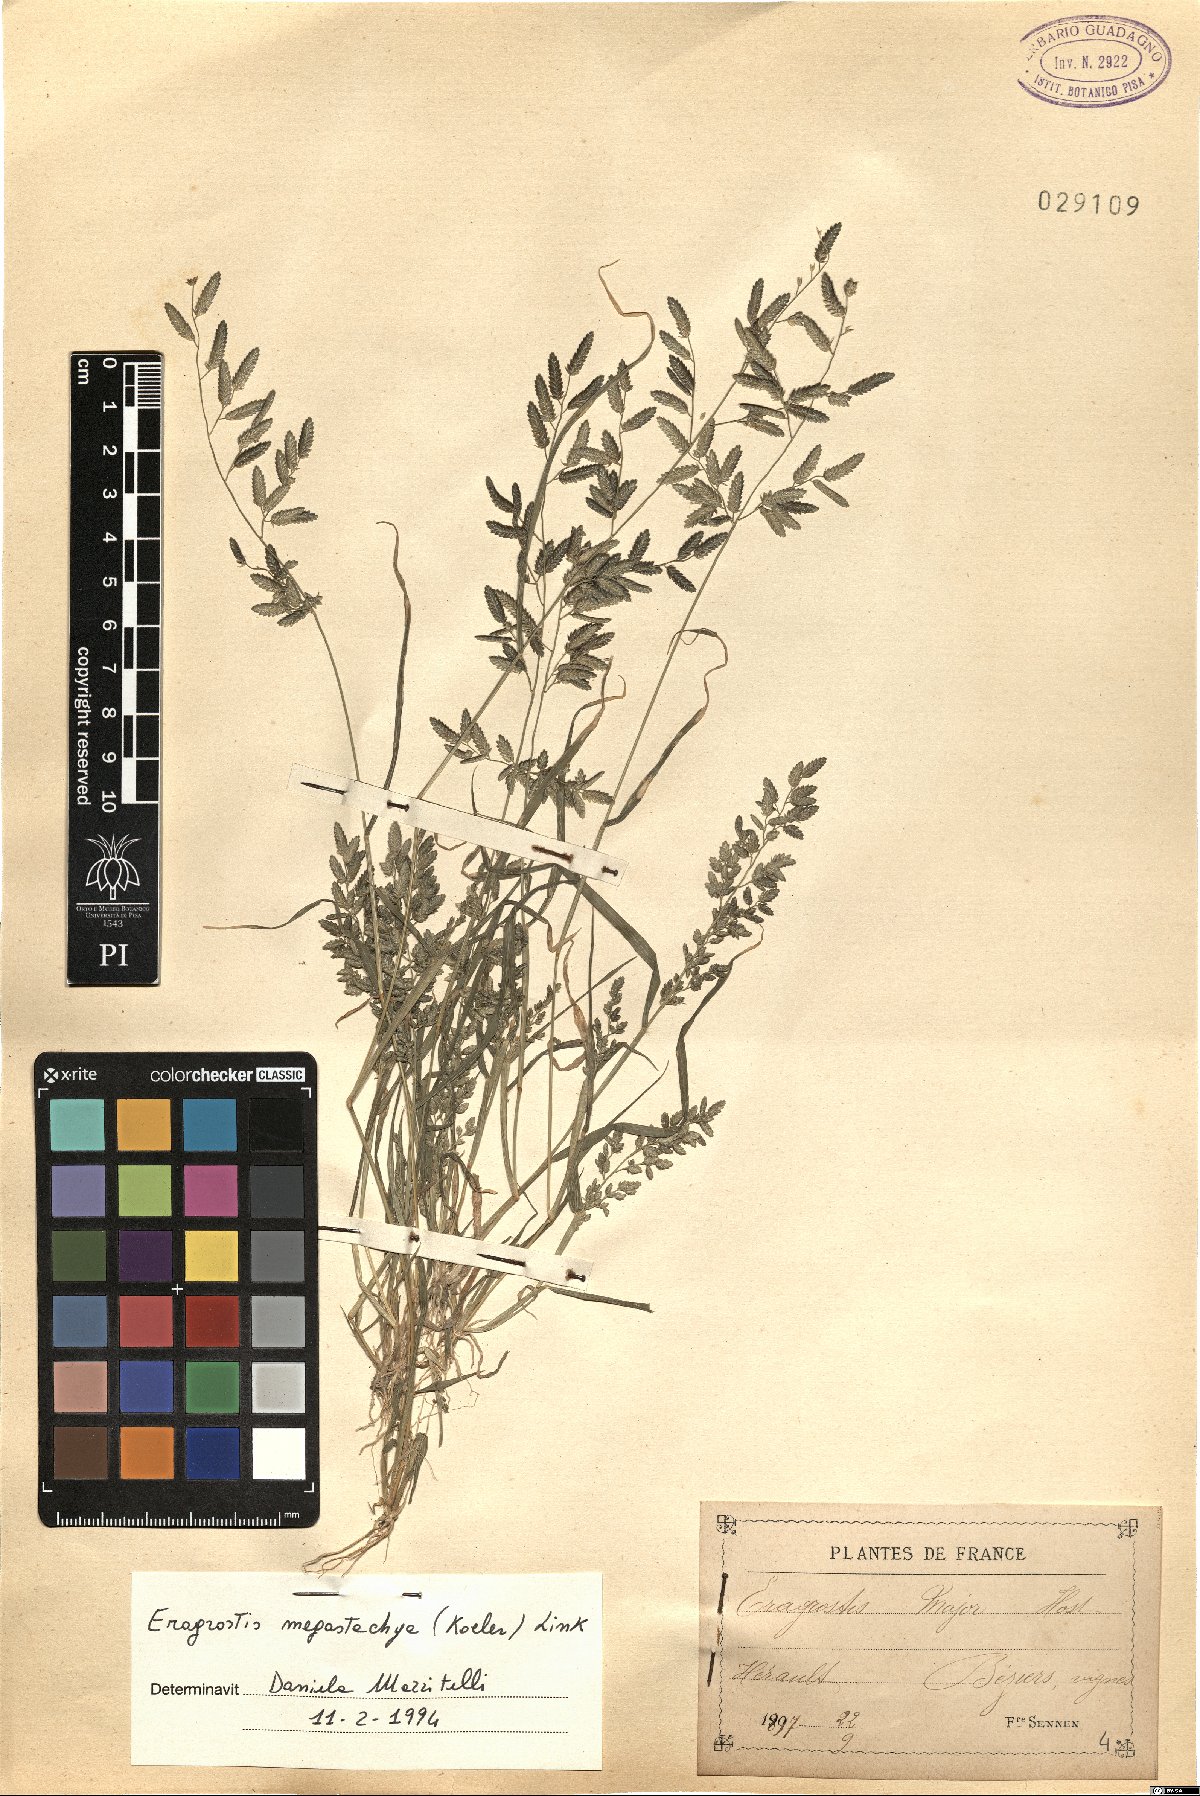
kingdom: Plantae
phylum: Tracheophyta
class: Liliopsida
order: Poales
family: Poaceae
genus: Eragrostis
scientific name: Eragrostis cilianensis
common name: Stinkgrass
